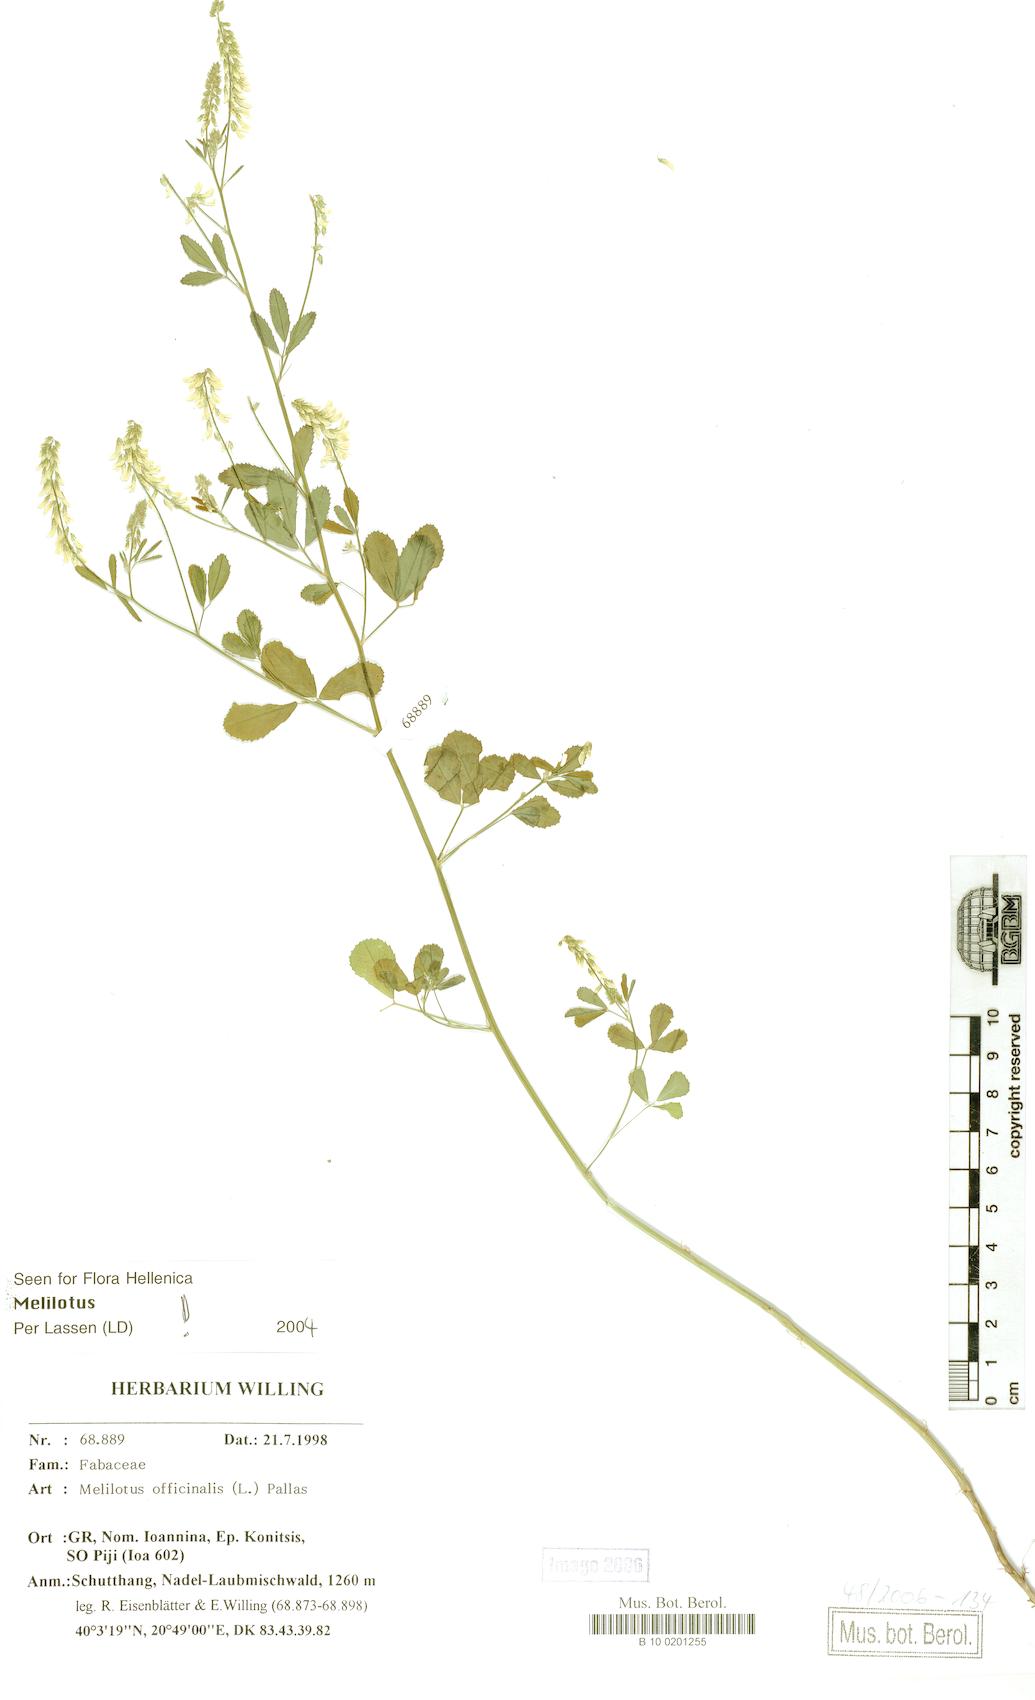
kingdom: Plantae
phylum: Tracheophyta
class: Magnoliopsida
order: Fabales
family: Fabaceae
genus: Melilotus
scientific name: Melilotus officinalis
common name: Sweetclover
